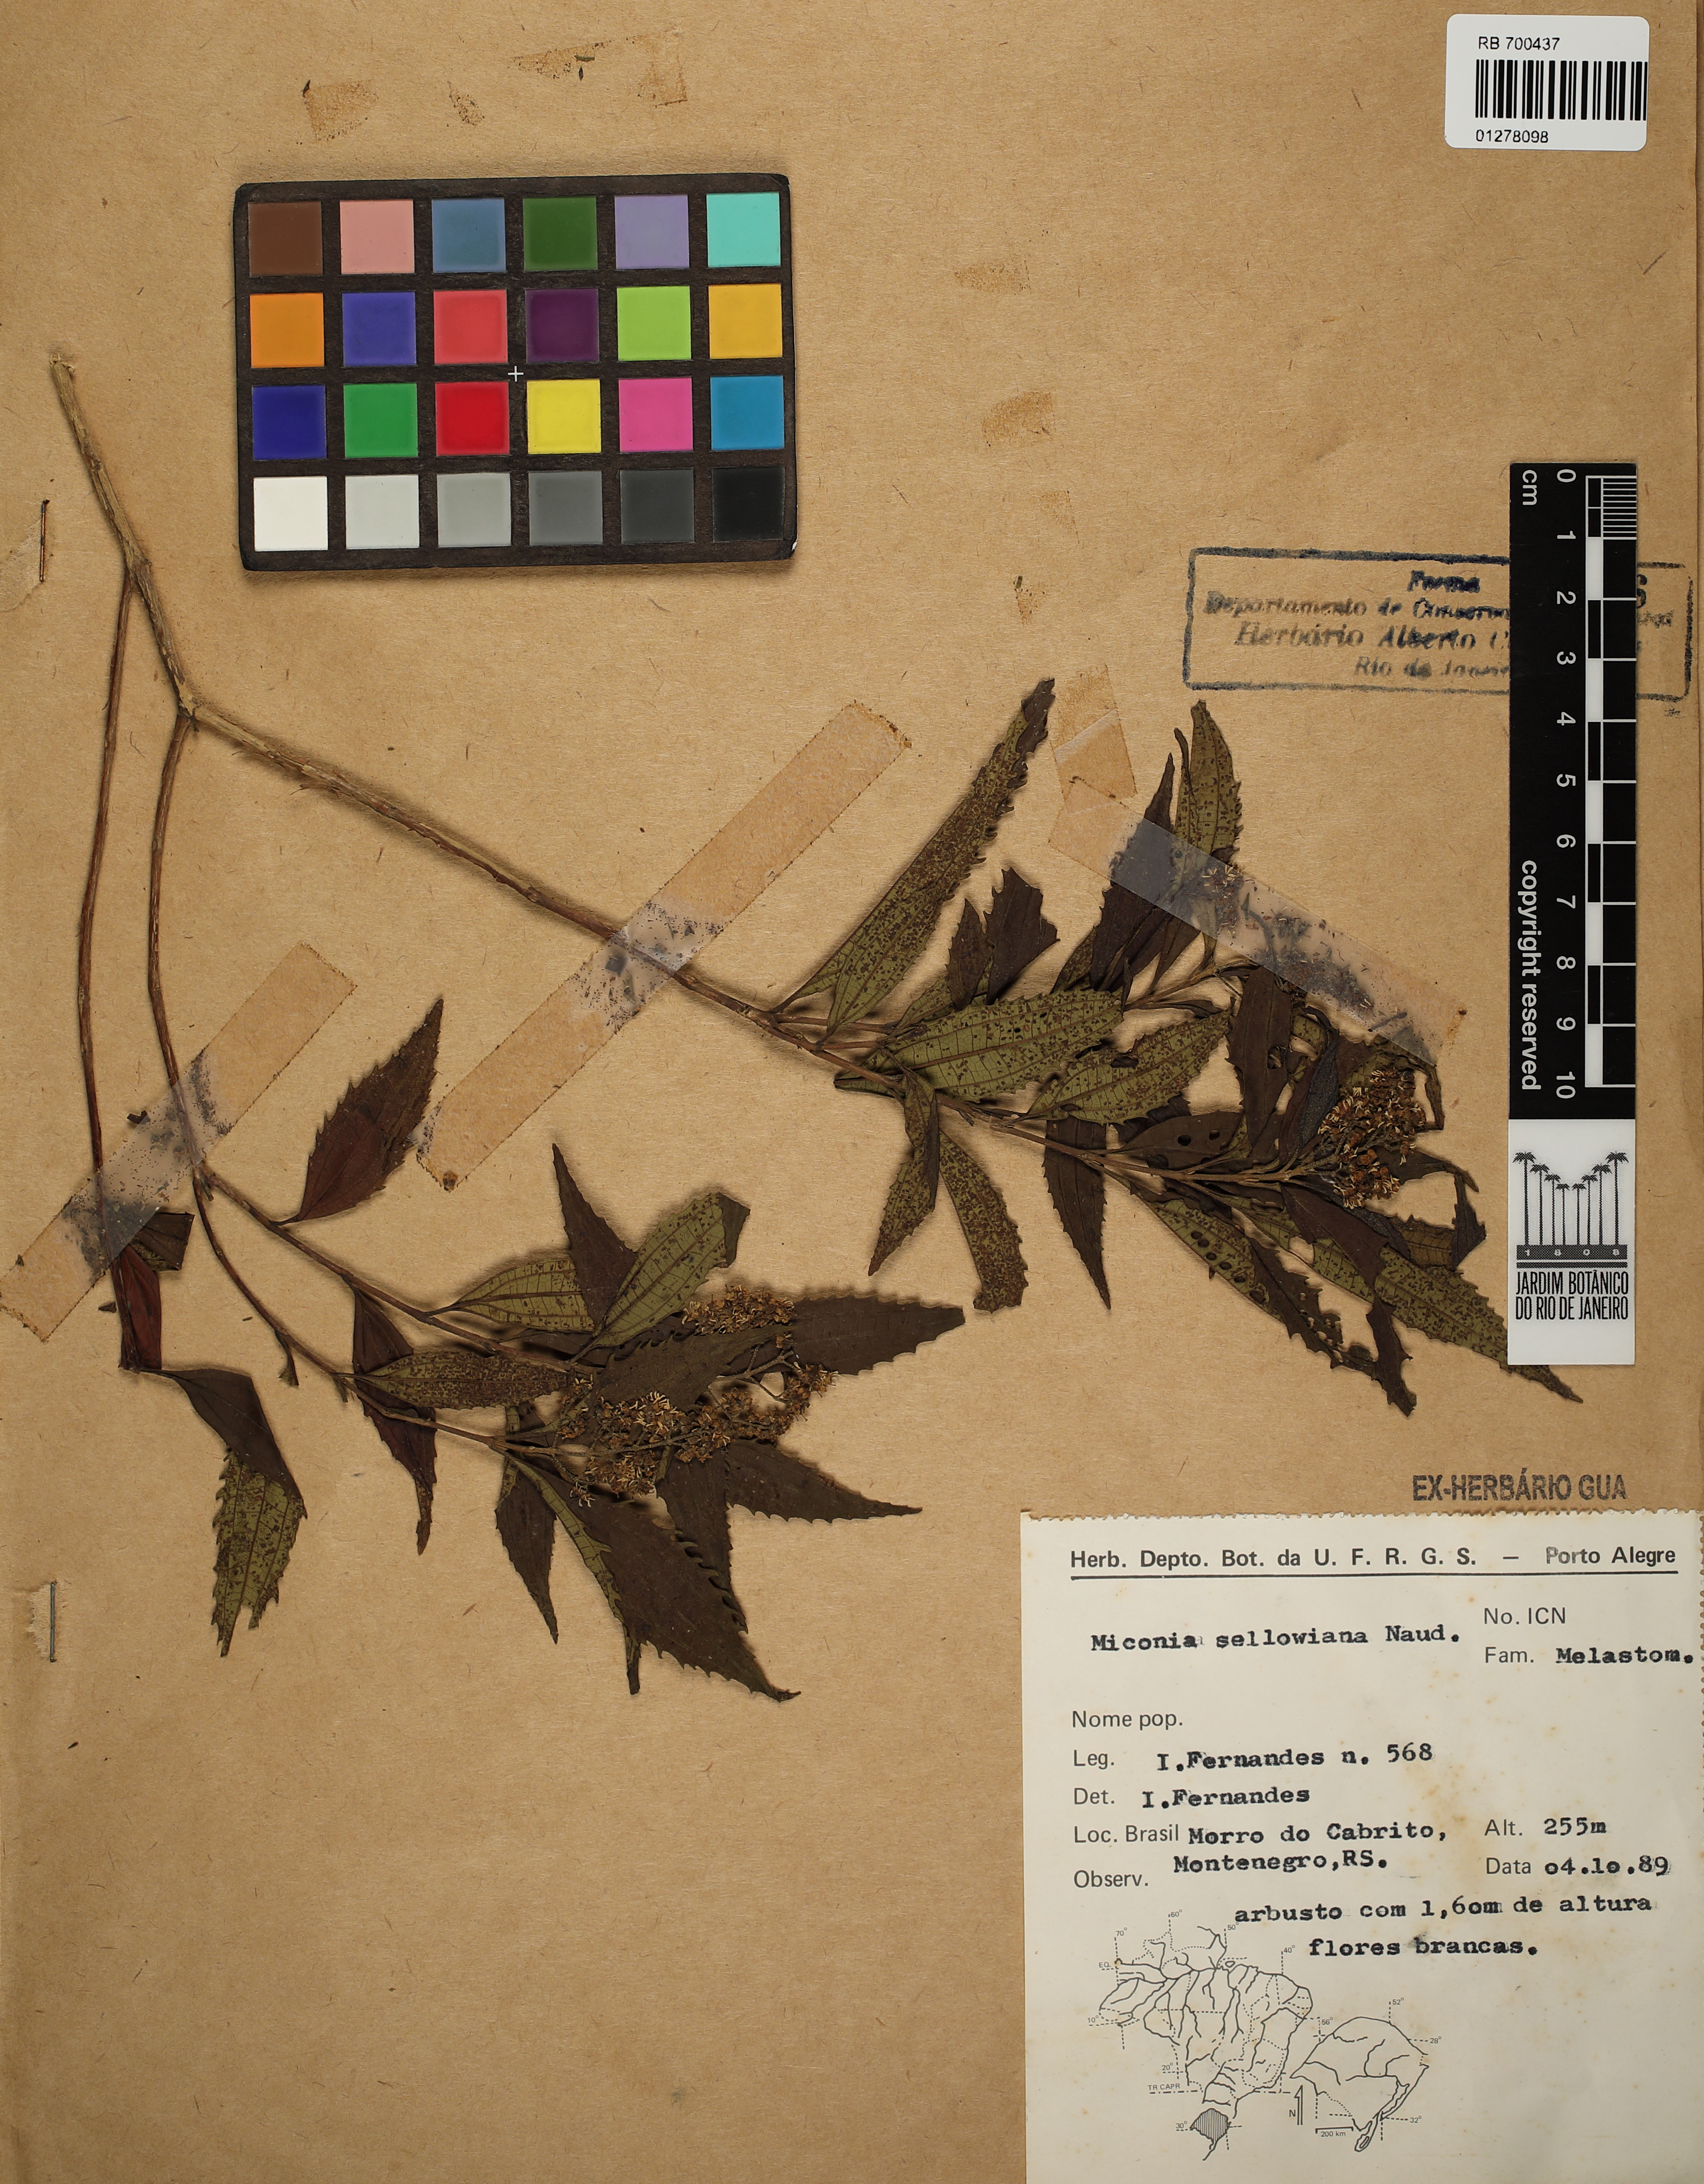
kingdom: Plantae
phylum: Tracheophyta
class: Magnoliopsida
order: Myrtales
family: Melastomataceae
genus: Miconia
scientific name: Miconia sellowiana
